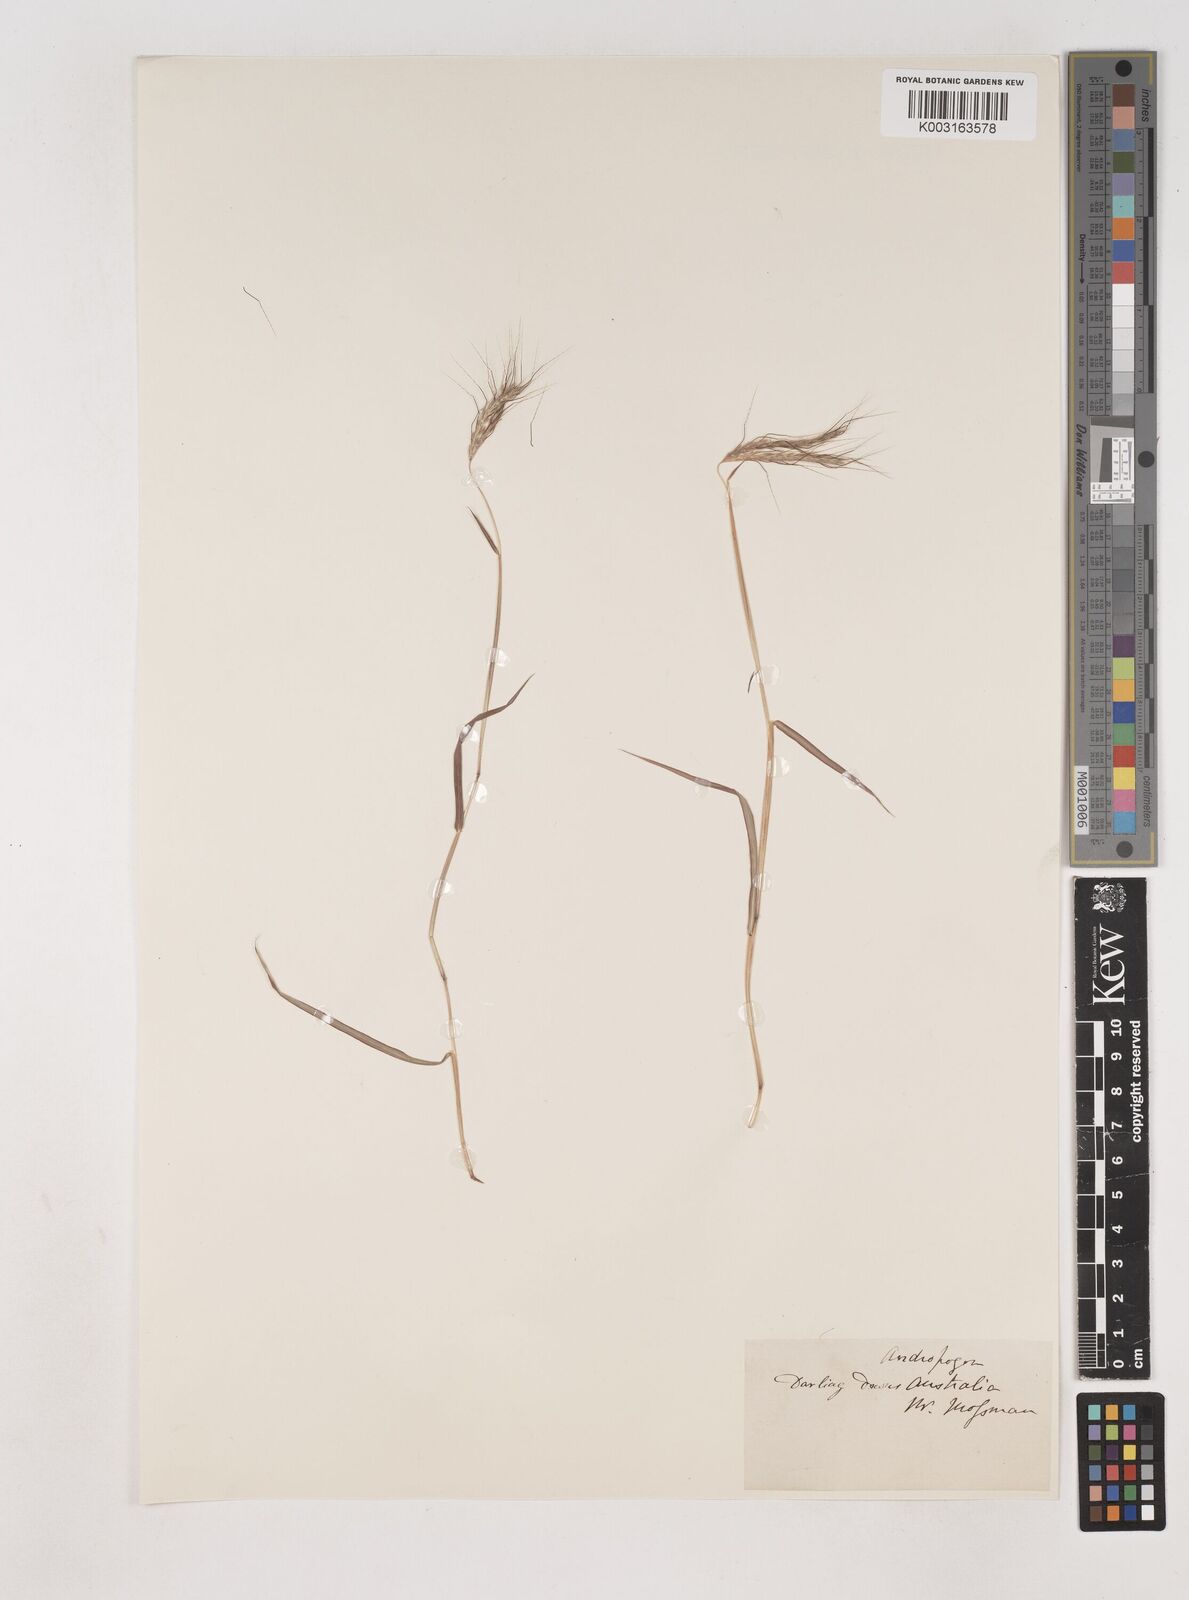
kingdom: Plantae
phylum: Tracheophyta
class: Liliopsida
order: Poales
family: Poaceae
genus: Dichanthium
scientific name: Dichanthium
